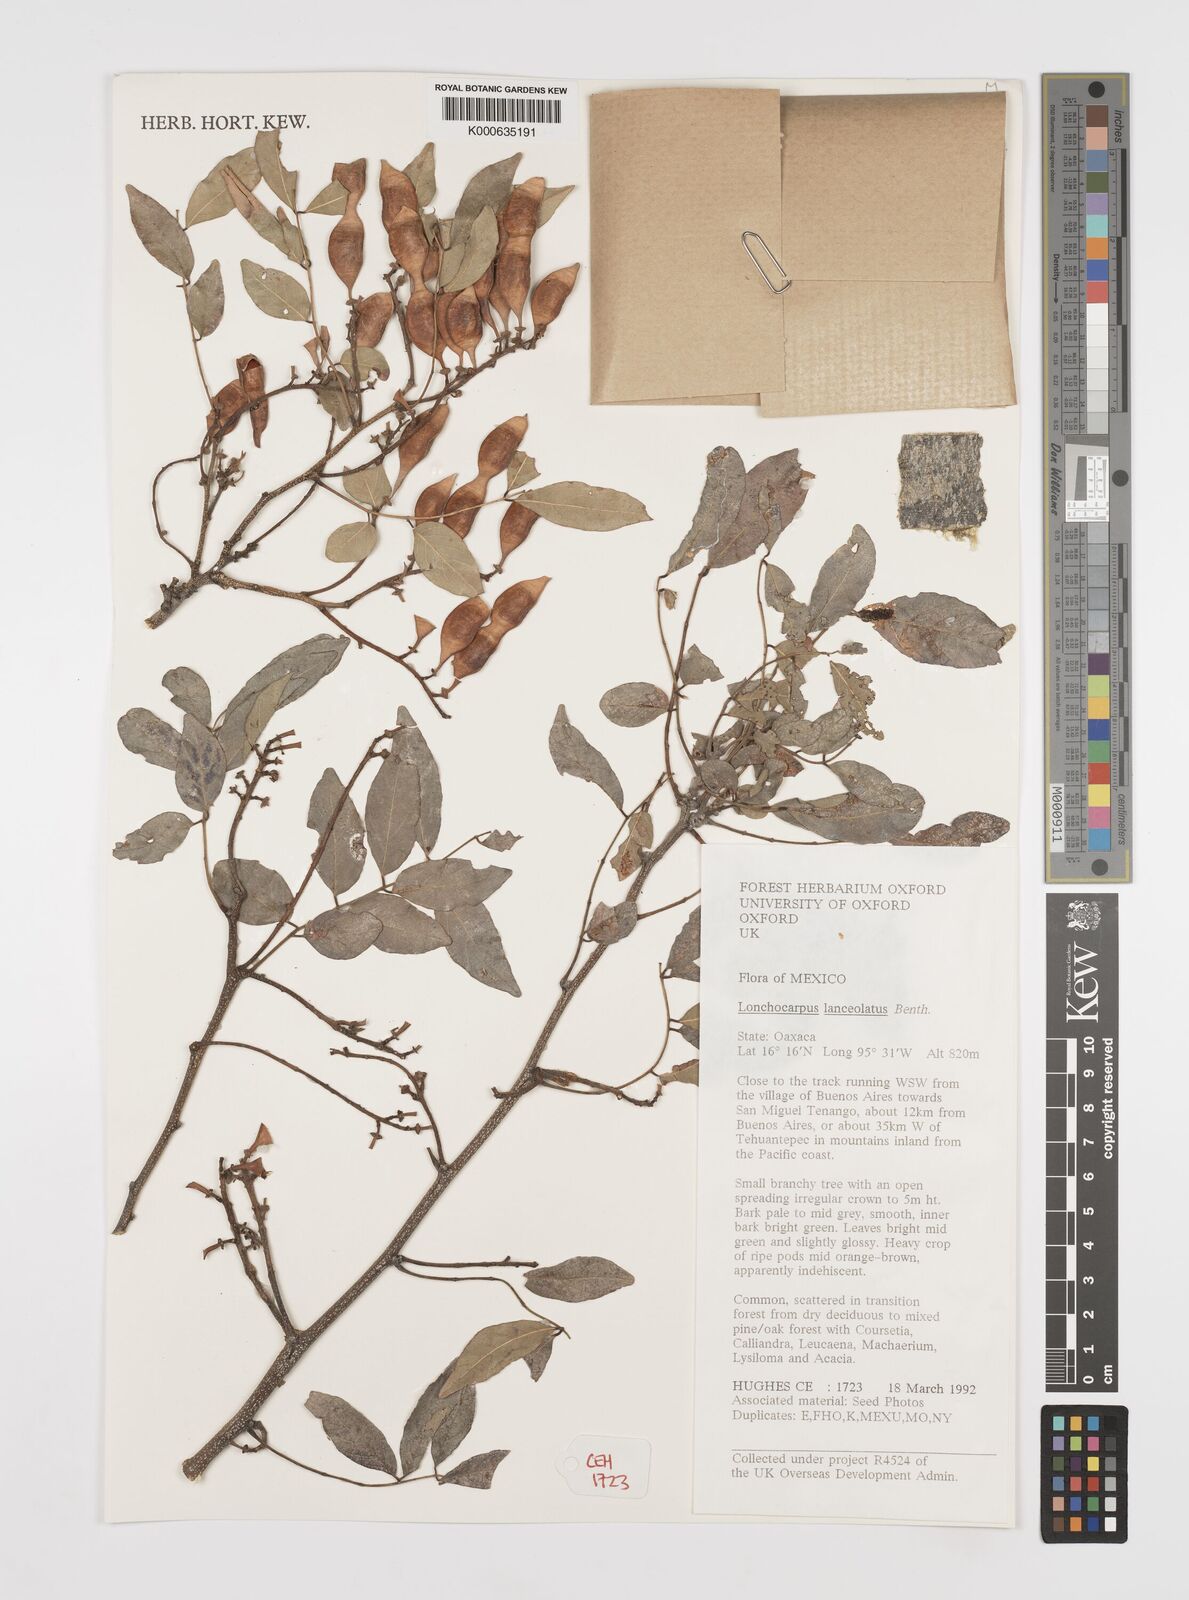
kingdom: Plantae
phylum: Tracheophyta
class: Magnoliopsida
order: Fabales
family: Fabaceae
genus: Lonchocarpus
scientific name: Lonchocarpus lanceolatus
